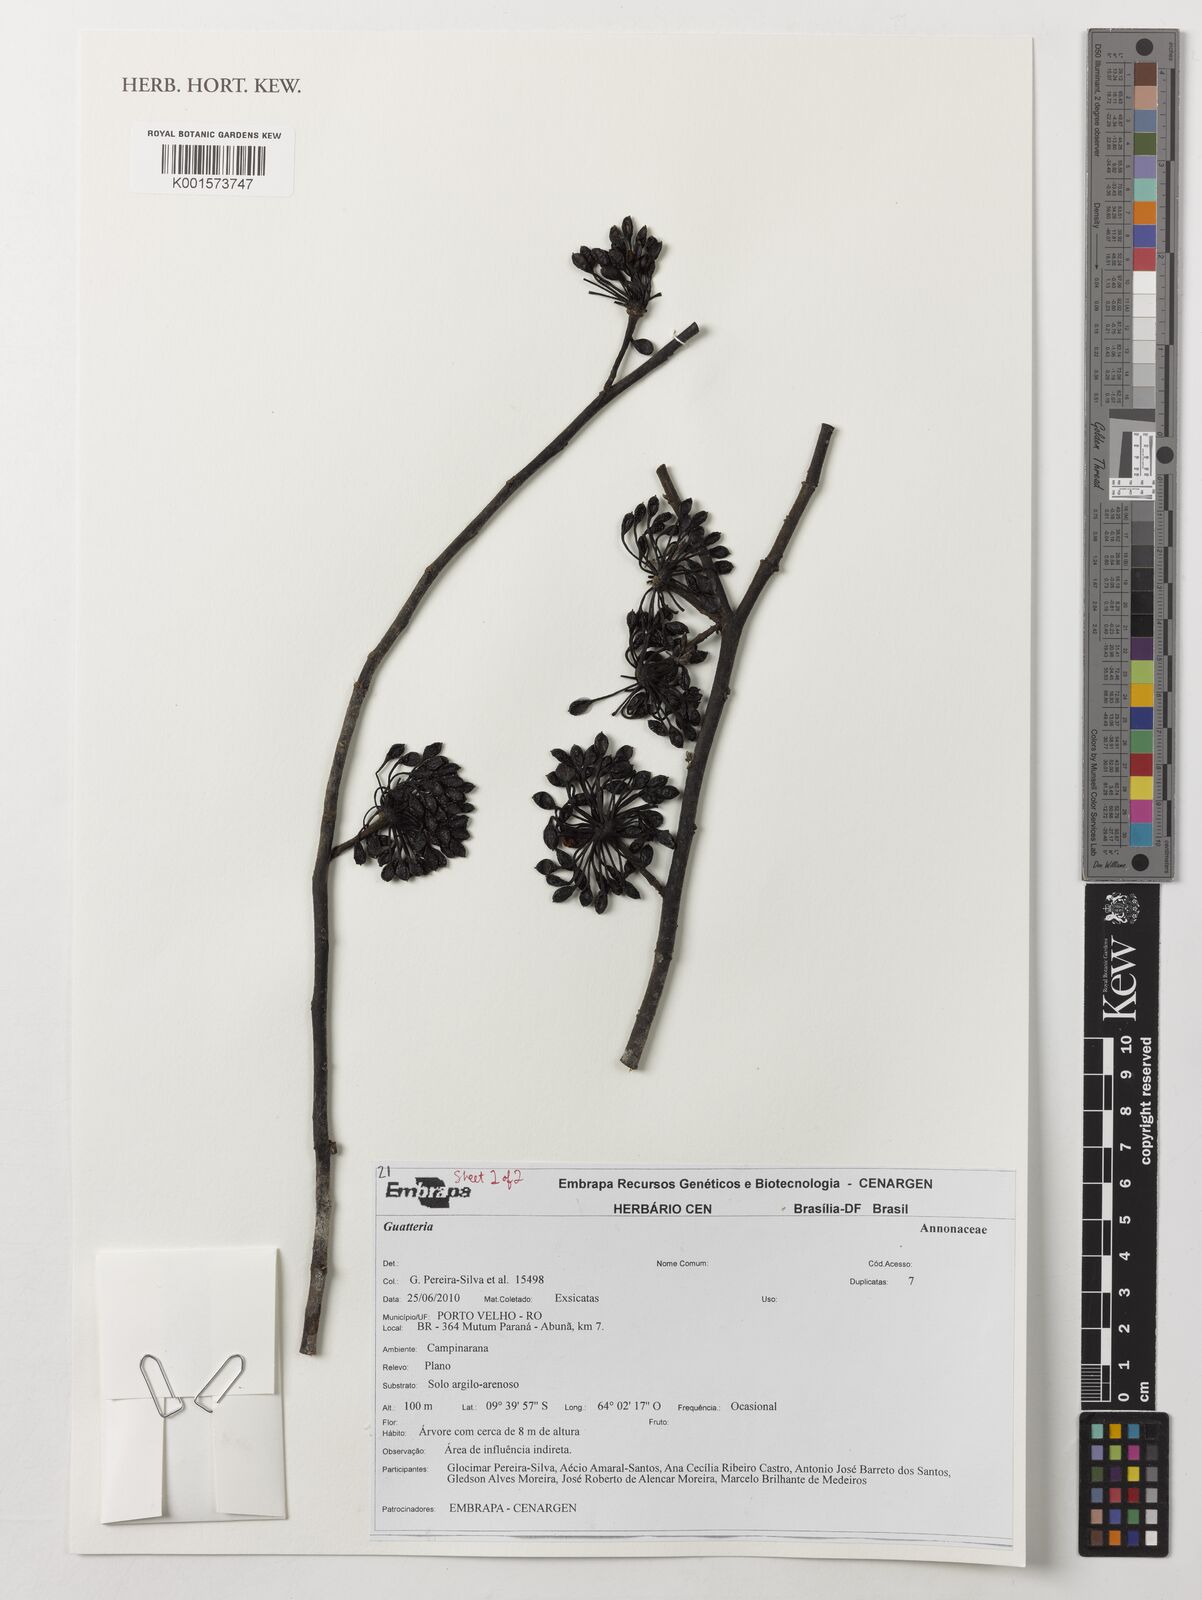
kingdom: Plantae
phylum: Tracheophyta
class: Magnoliopsida
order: Magnoliales
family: Annonaceae
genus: Guatteria
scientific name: Guatteria
